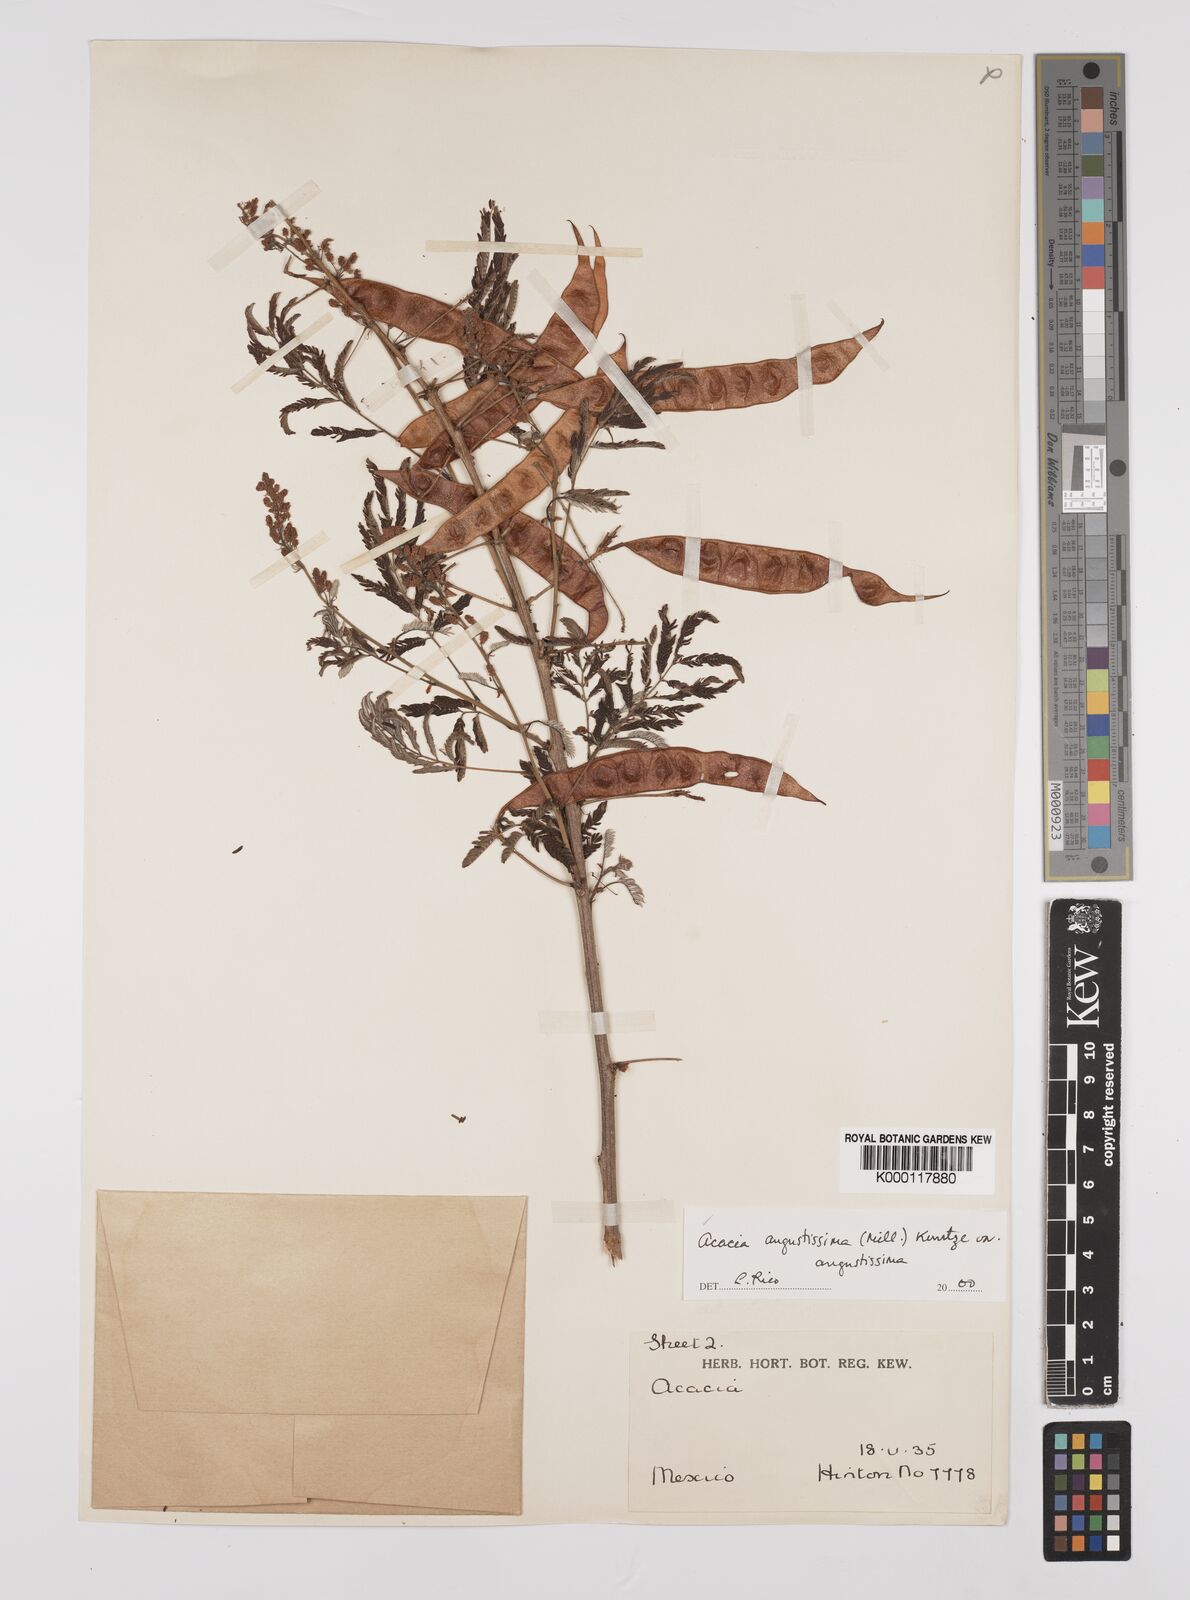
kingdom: Plantae
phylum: Tracheophyta
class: Magnoliopsida
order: Fabales
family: Fabaceae
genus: Acaciella
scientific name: Acaciella angustissima
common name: Prairie acacia
